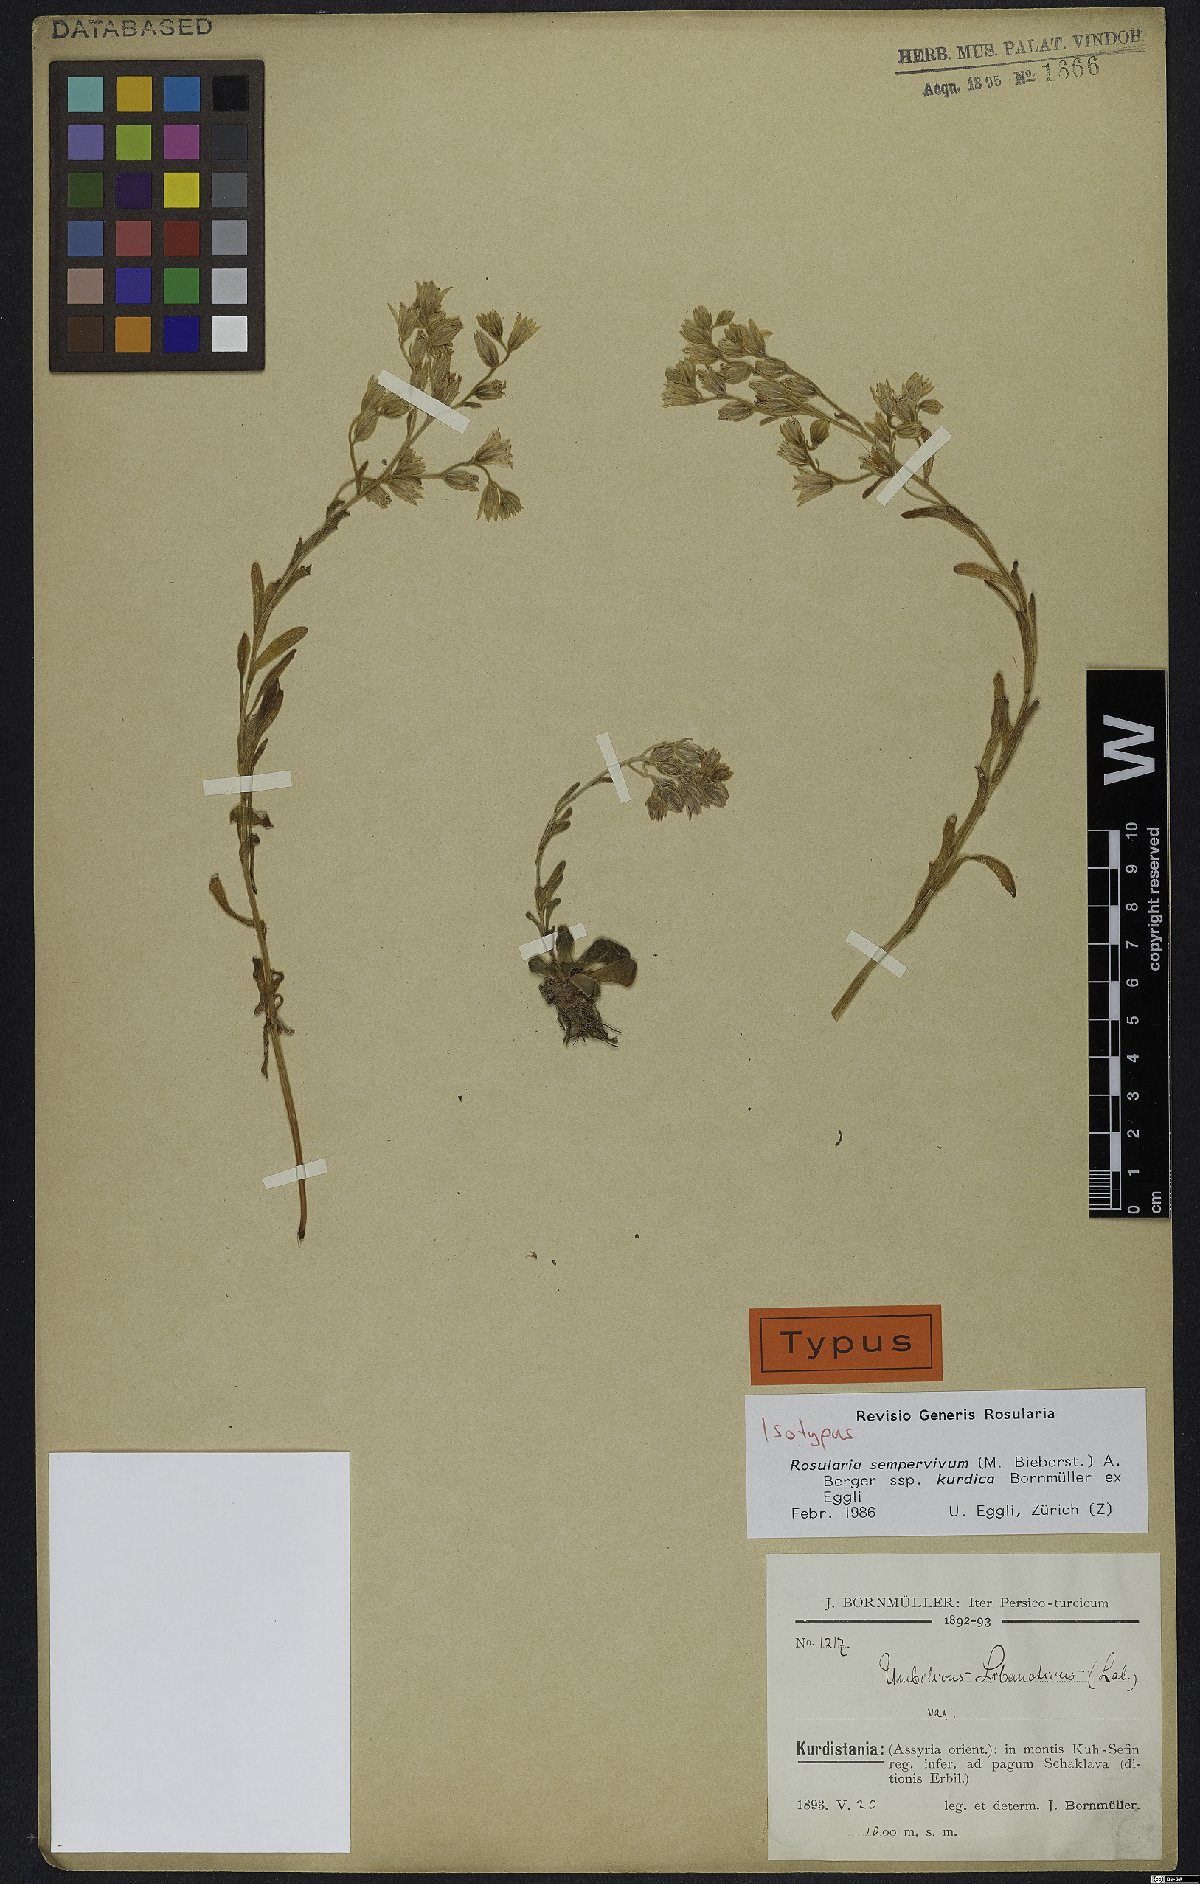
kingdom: Plantae
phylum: Tracheophyta
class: Magnoliopsida
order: Saxifragales
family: Crassulaceae
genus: Rosularia
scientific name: Rosularia sempervivum
